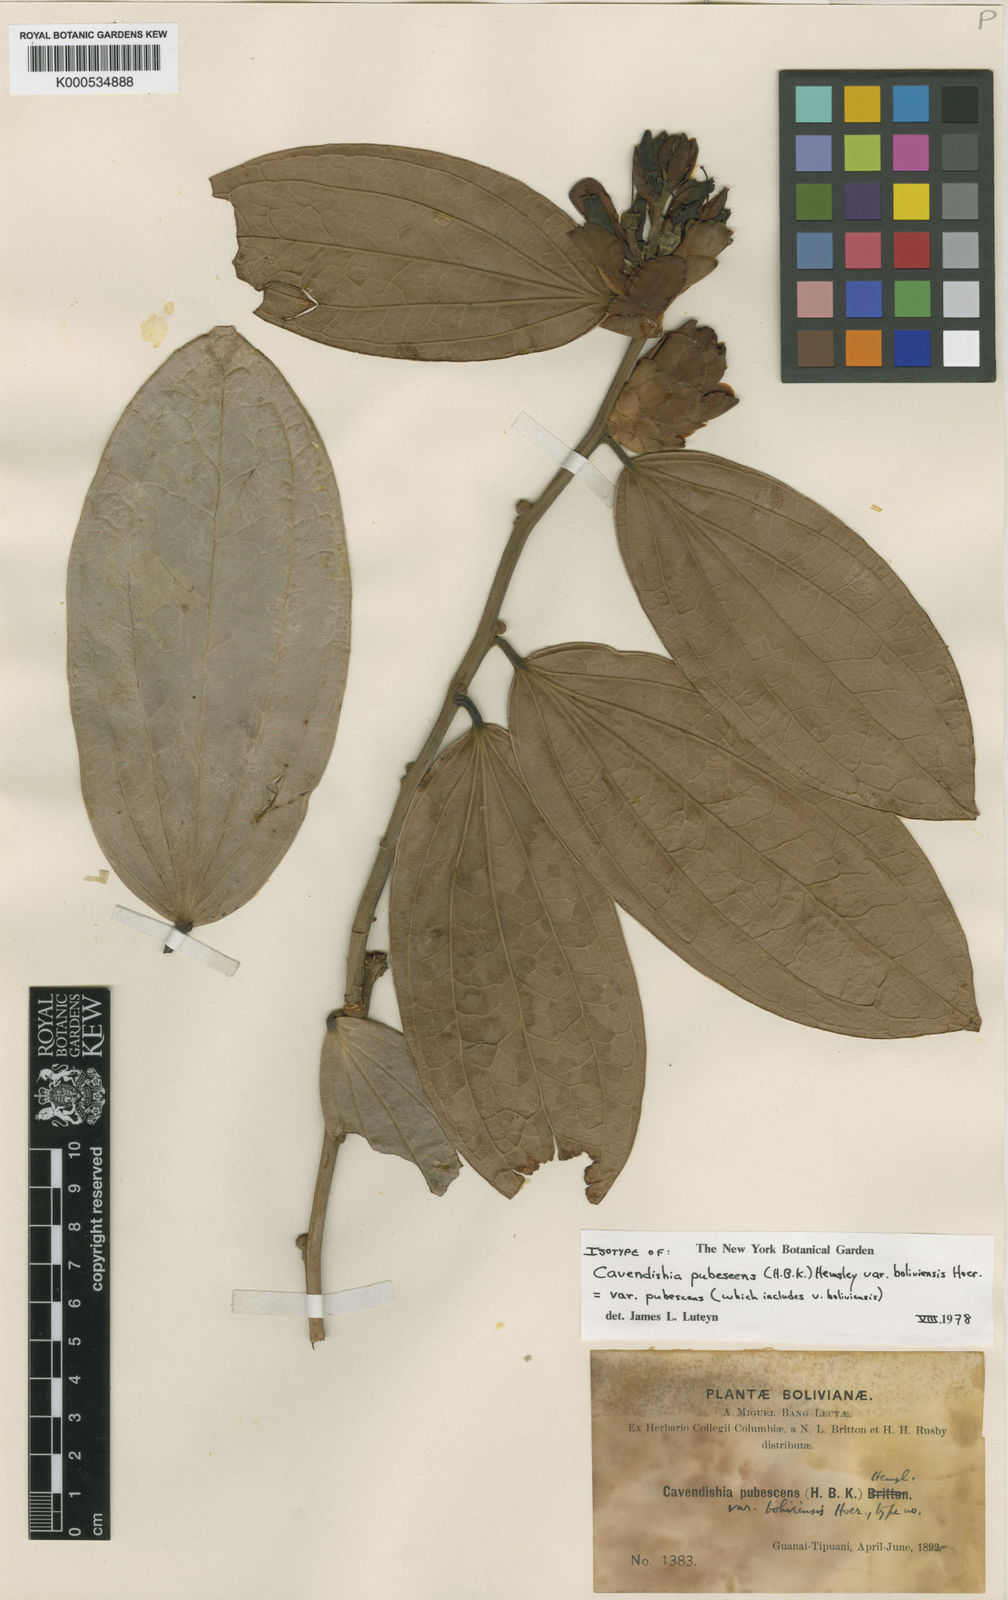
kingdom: Plantae
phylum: Tracheophyta
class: Magnoliopsida
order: Ericales
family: Ericaceae
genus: Cavendishia
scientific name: Cavendishia pubescens
